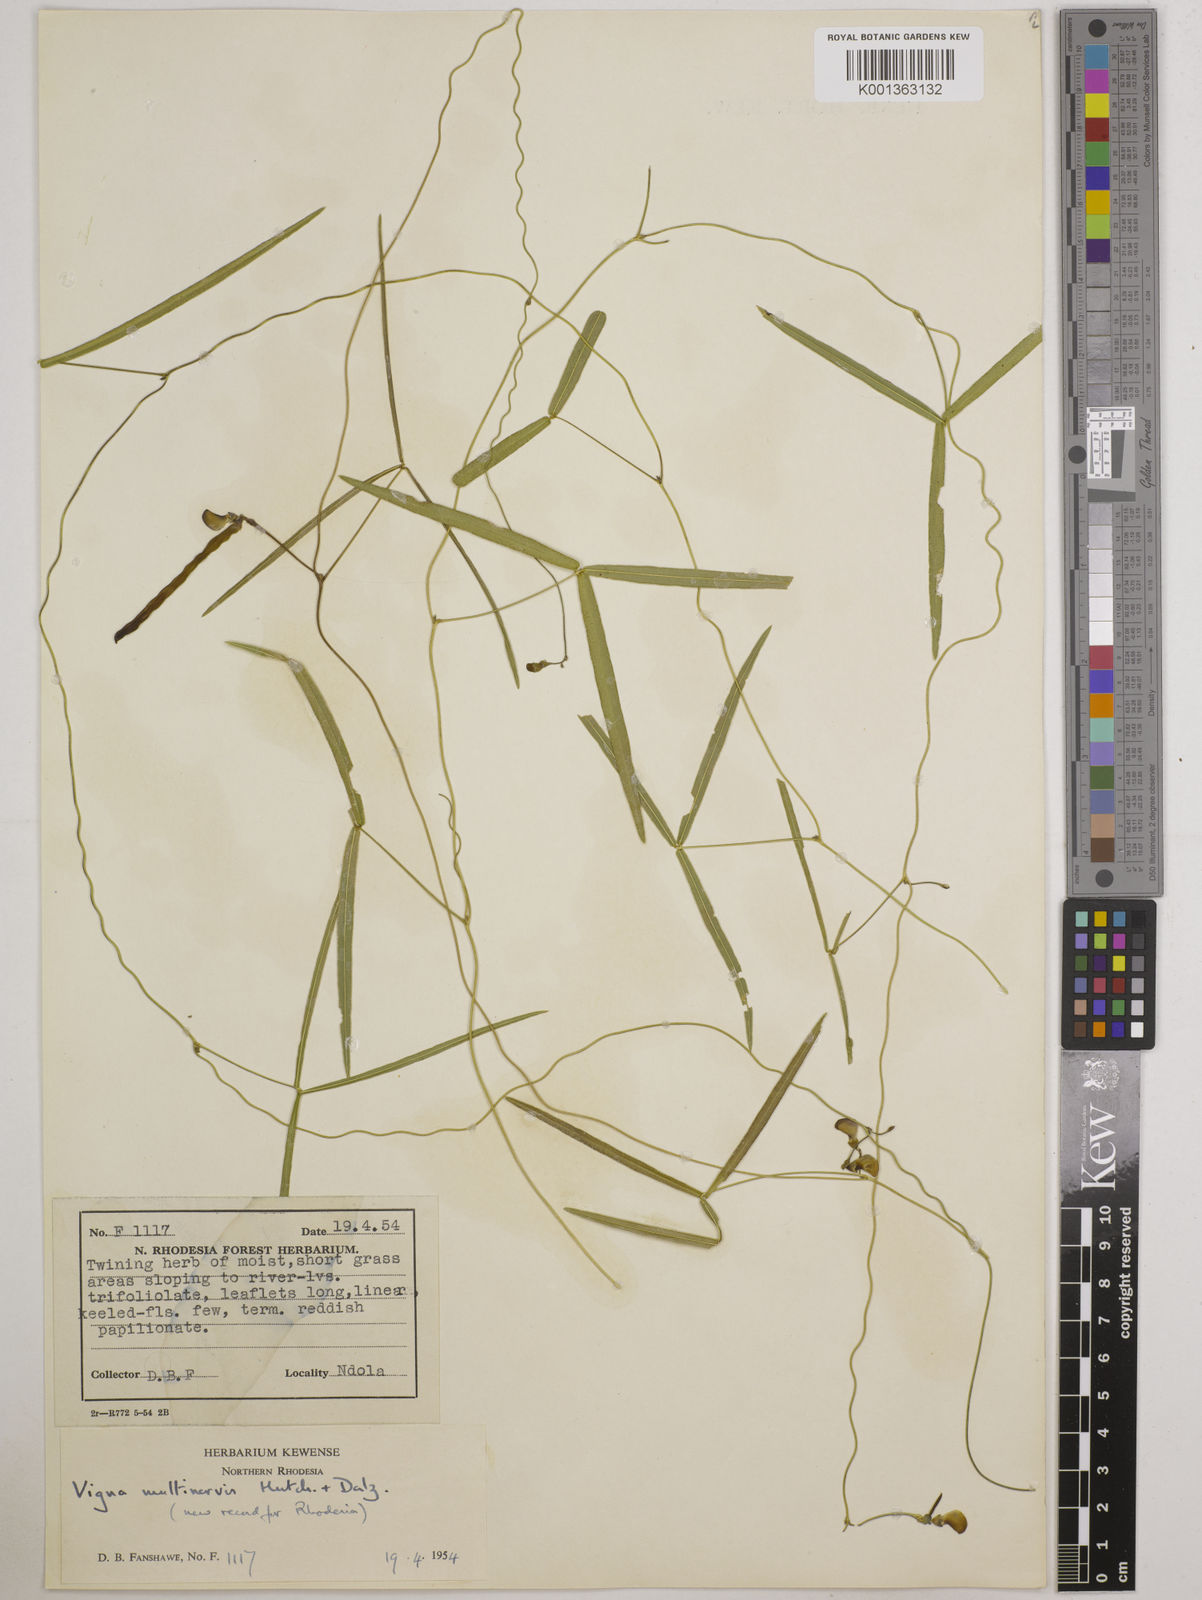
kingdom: Plantae
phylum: Tracheophyta
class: Magnoliopsida
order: Fabales
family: Fabaceae
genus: Vigna
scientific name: Vigna multinervis
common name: Fula-pulaar
